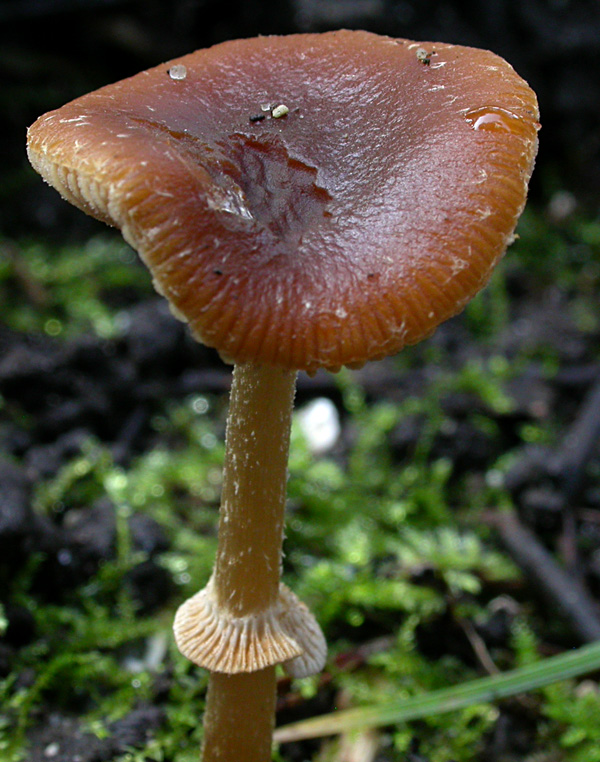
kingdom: Fungi
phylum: Basidiomycota
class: Agaricomycetes
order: Agaricales
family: Bolbitiaceae
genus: Conocybe
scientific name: Conocybe arrhenii
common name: ring-dansehat
